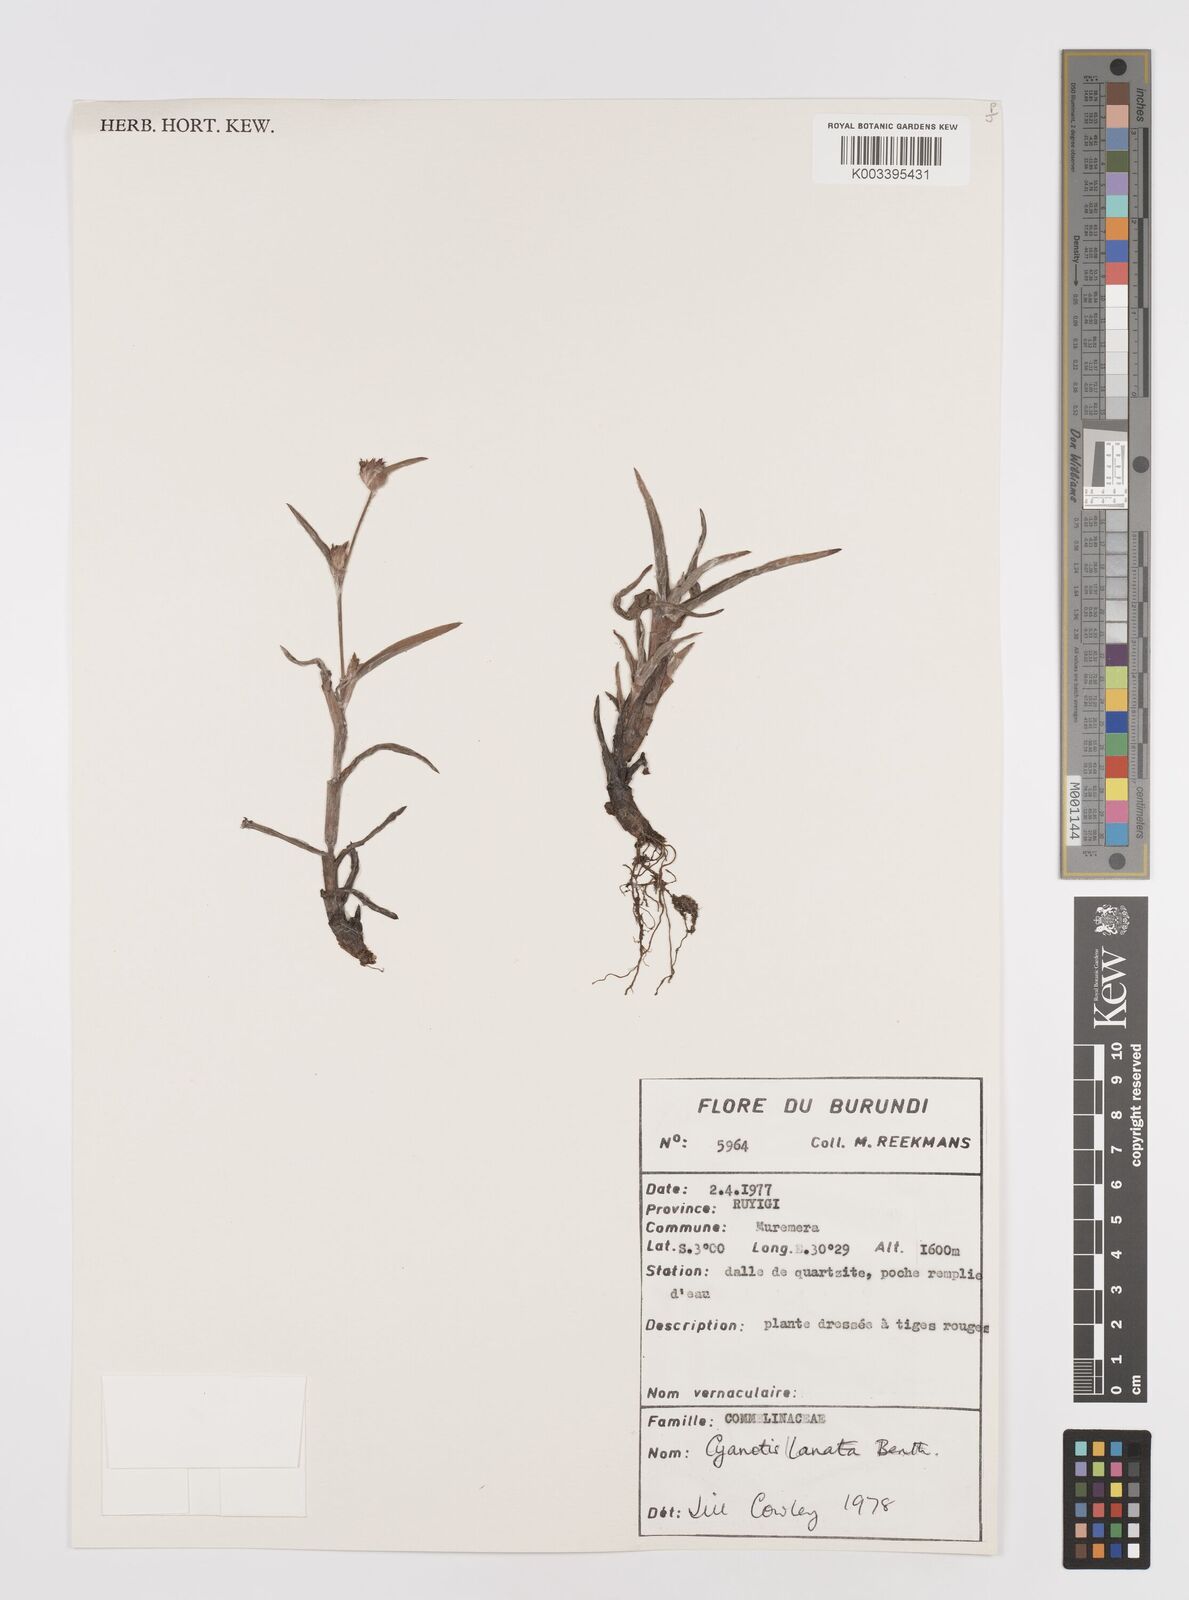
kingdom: Plantae
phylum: Tracheophyta
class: Liliopsida
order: Commelinales
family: Commelinaceae
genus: Cyanotis
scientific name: Cyanotis lanata
